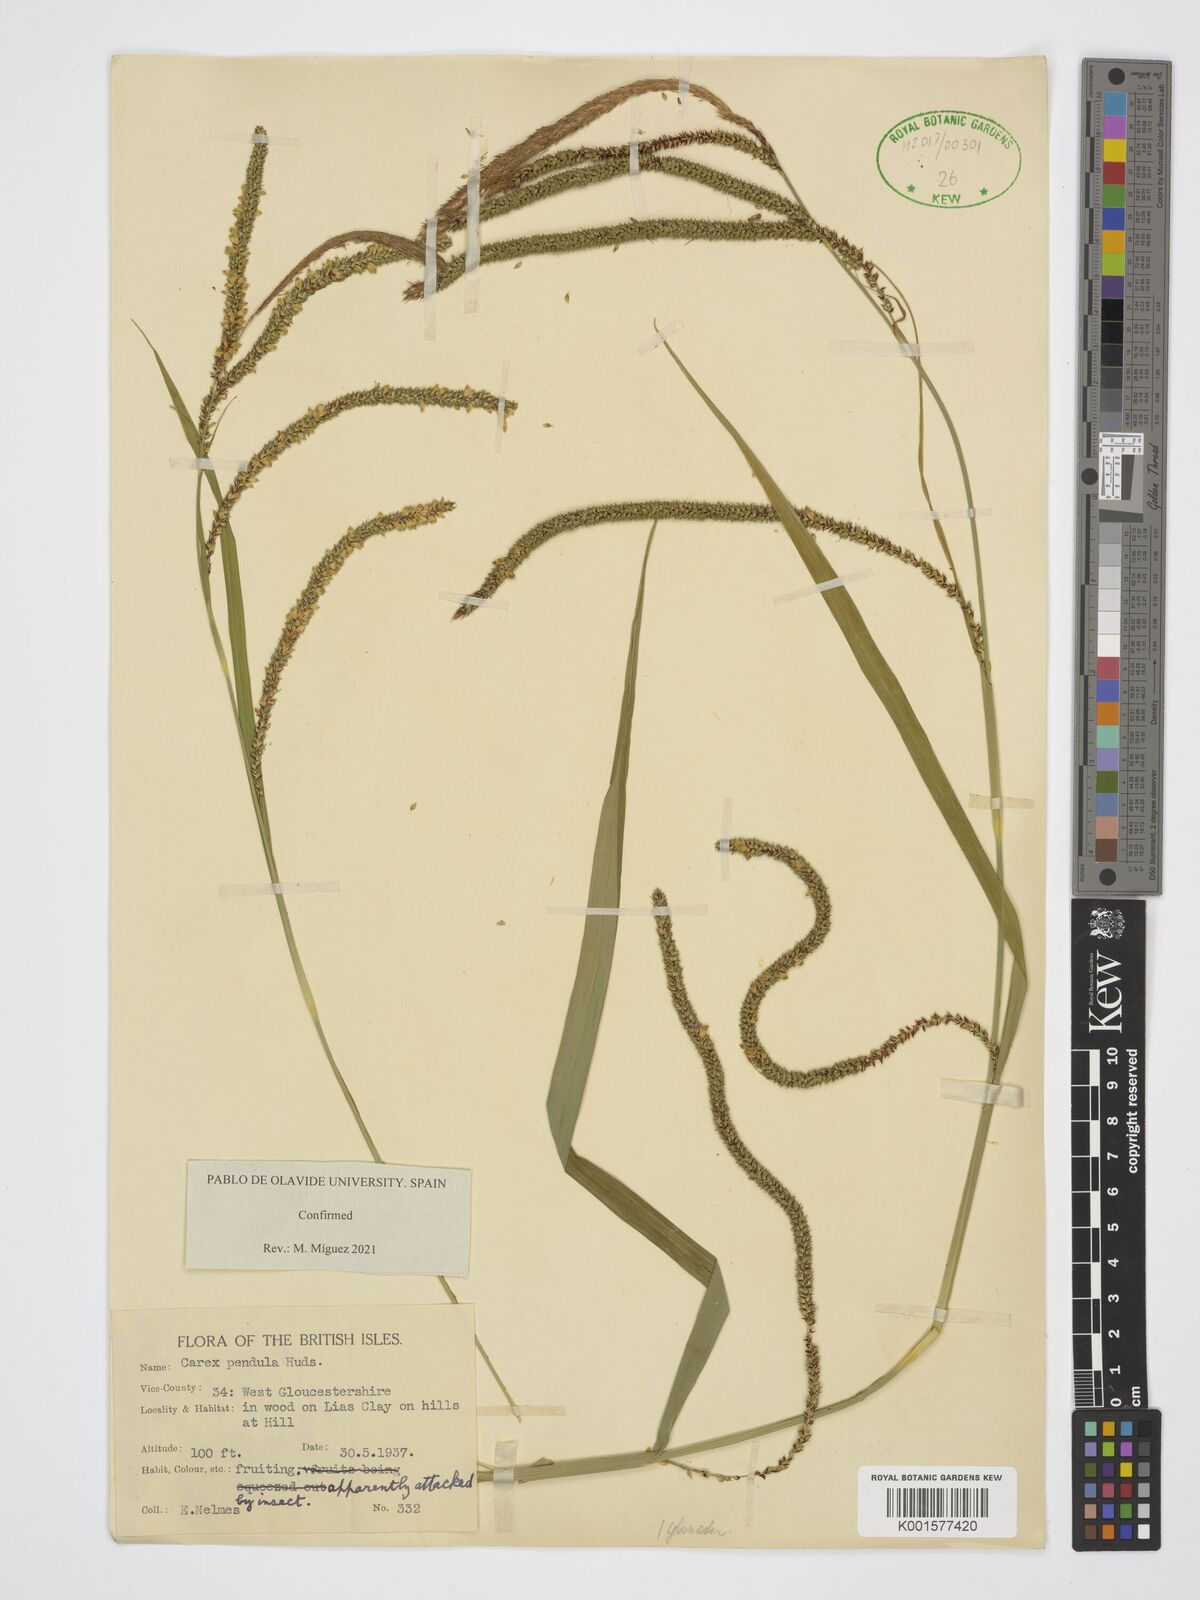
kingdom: Plantae
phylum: Tracheophyta
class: Liliopsida
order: Poales
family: Cyperaceae
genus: Carex
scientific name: Carex pendula
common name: Pendulous sedge
